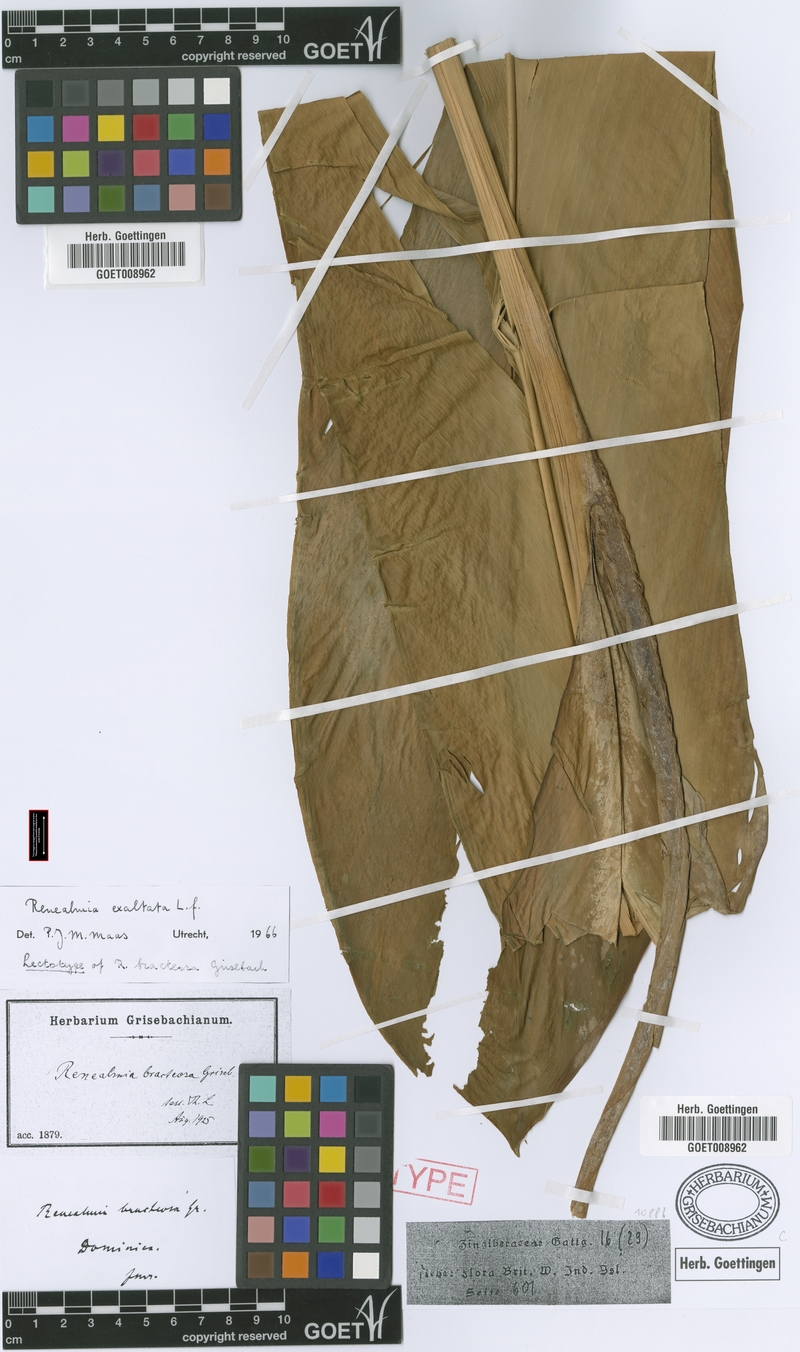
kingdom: Plantae
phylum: Tracheophyta
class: Liliopsida
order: Zingiberales
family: Zingiberaceae
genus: Renealmia
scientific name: Renealmia alpinia
